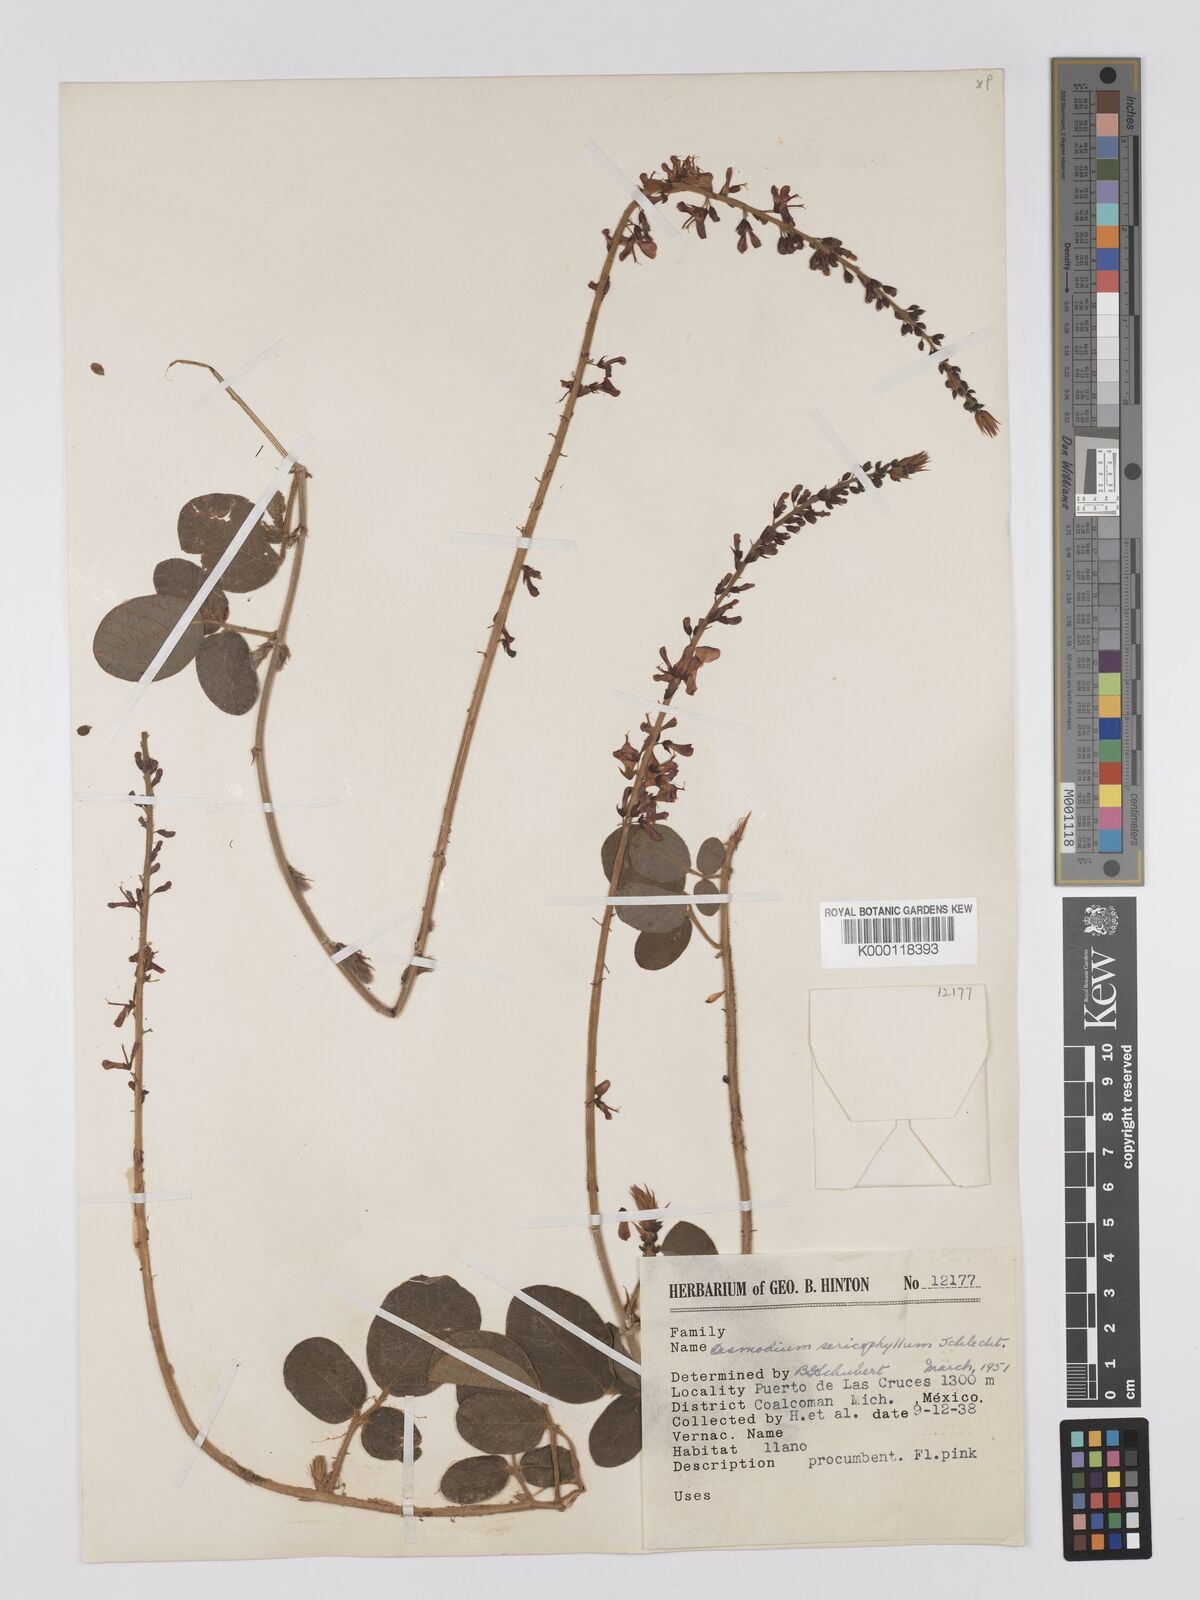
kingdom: Plantae
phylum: Tracheophyta
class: Magnoliopsida
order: Fabales
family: Fabaceae
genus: Desmodium
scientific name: Desmodium sericophyllum
